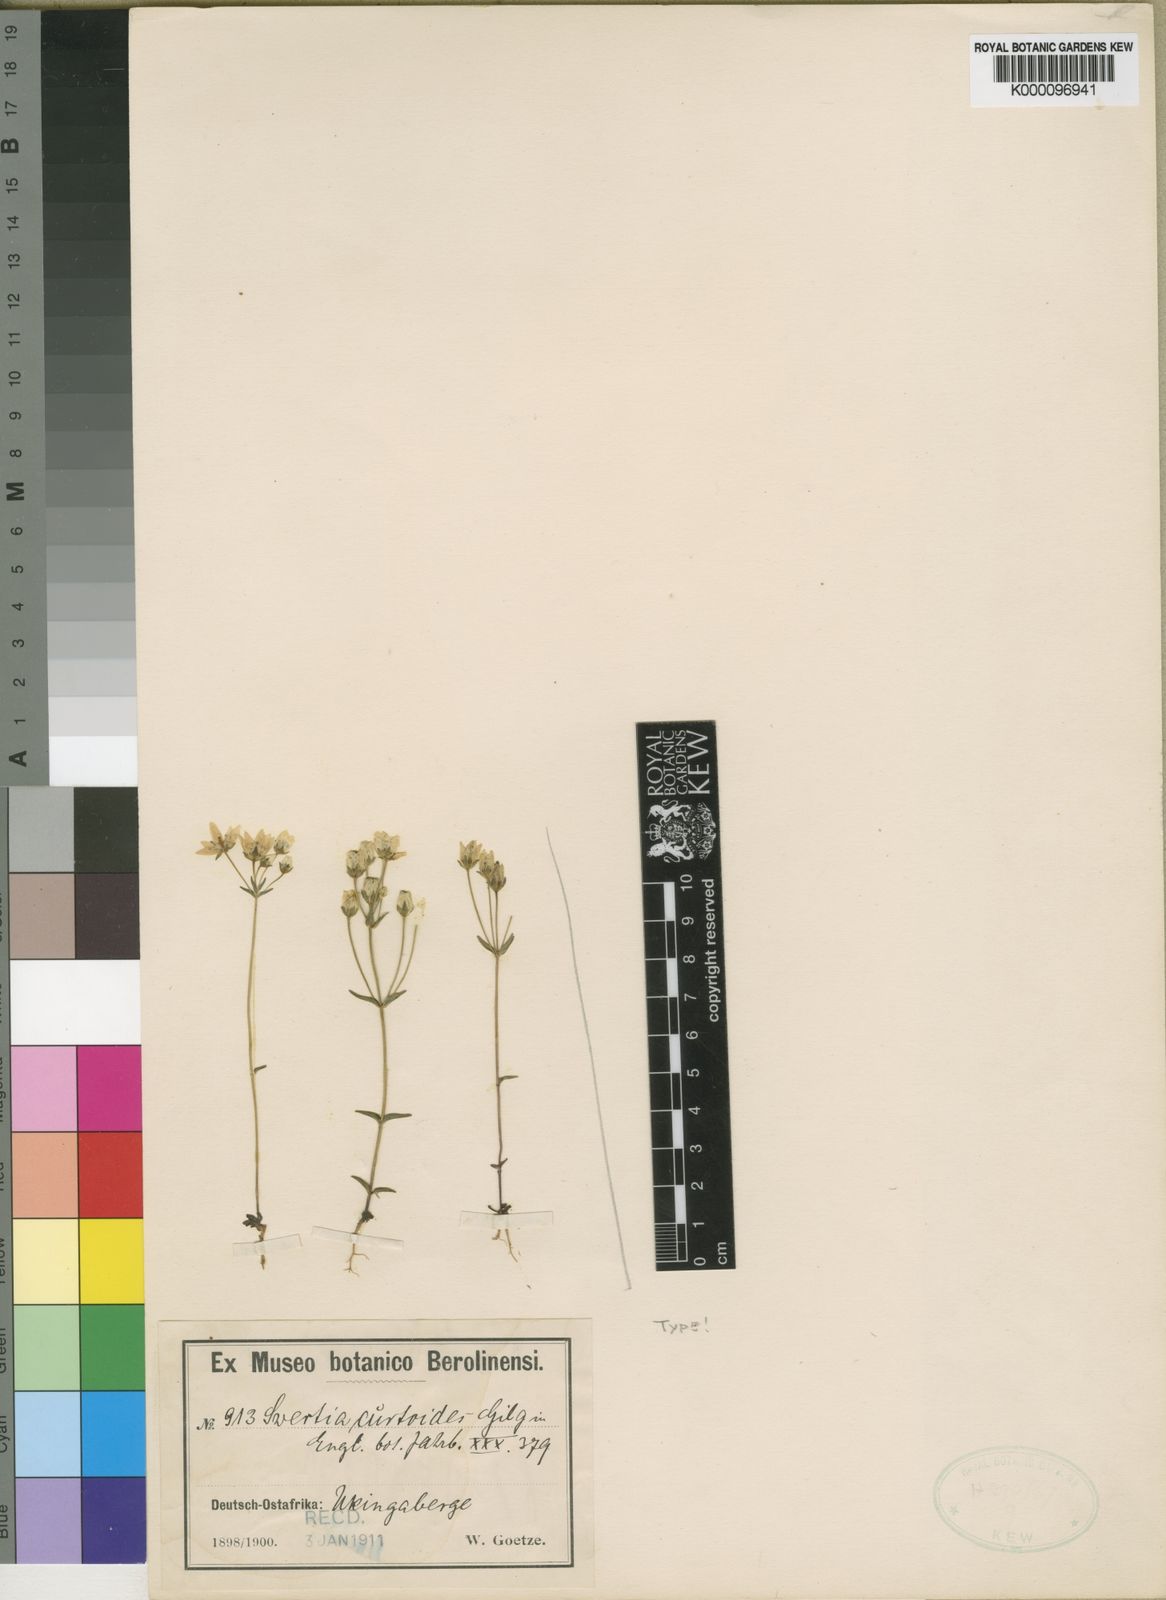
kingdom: Plantae
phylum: Tracheophyta
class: Magnoliopsida
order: Gentianales
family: Gentianaceae
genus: Swertia
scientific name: Swertia usambarensis
